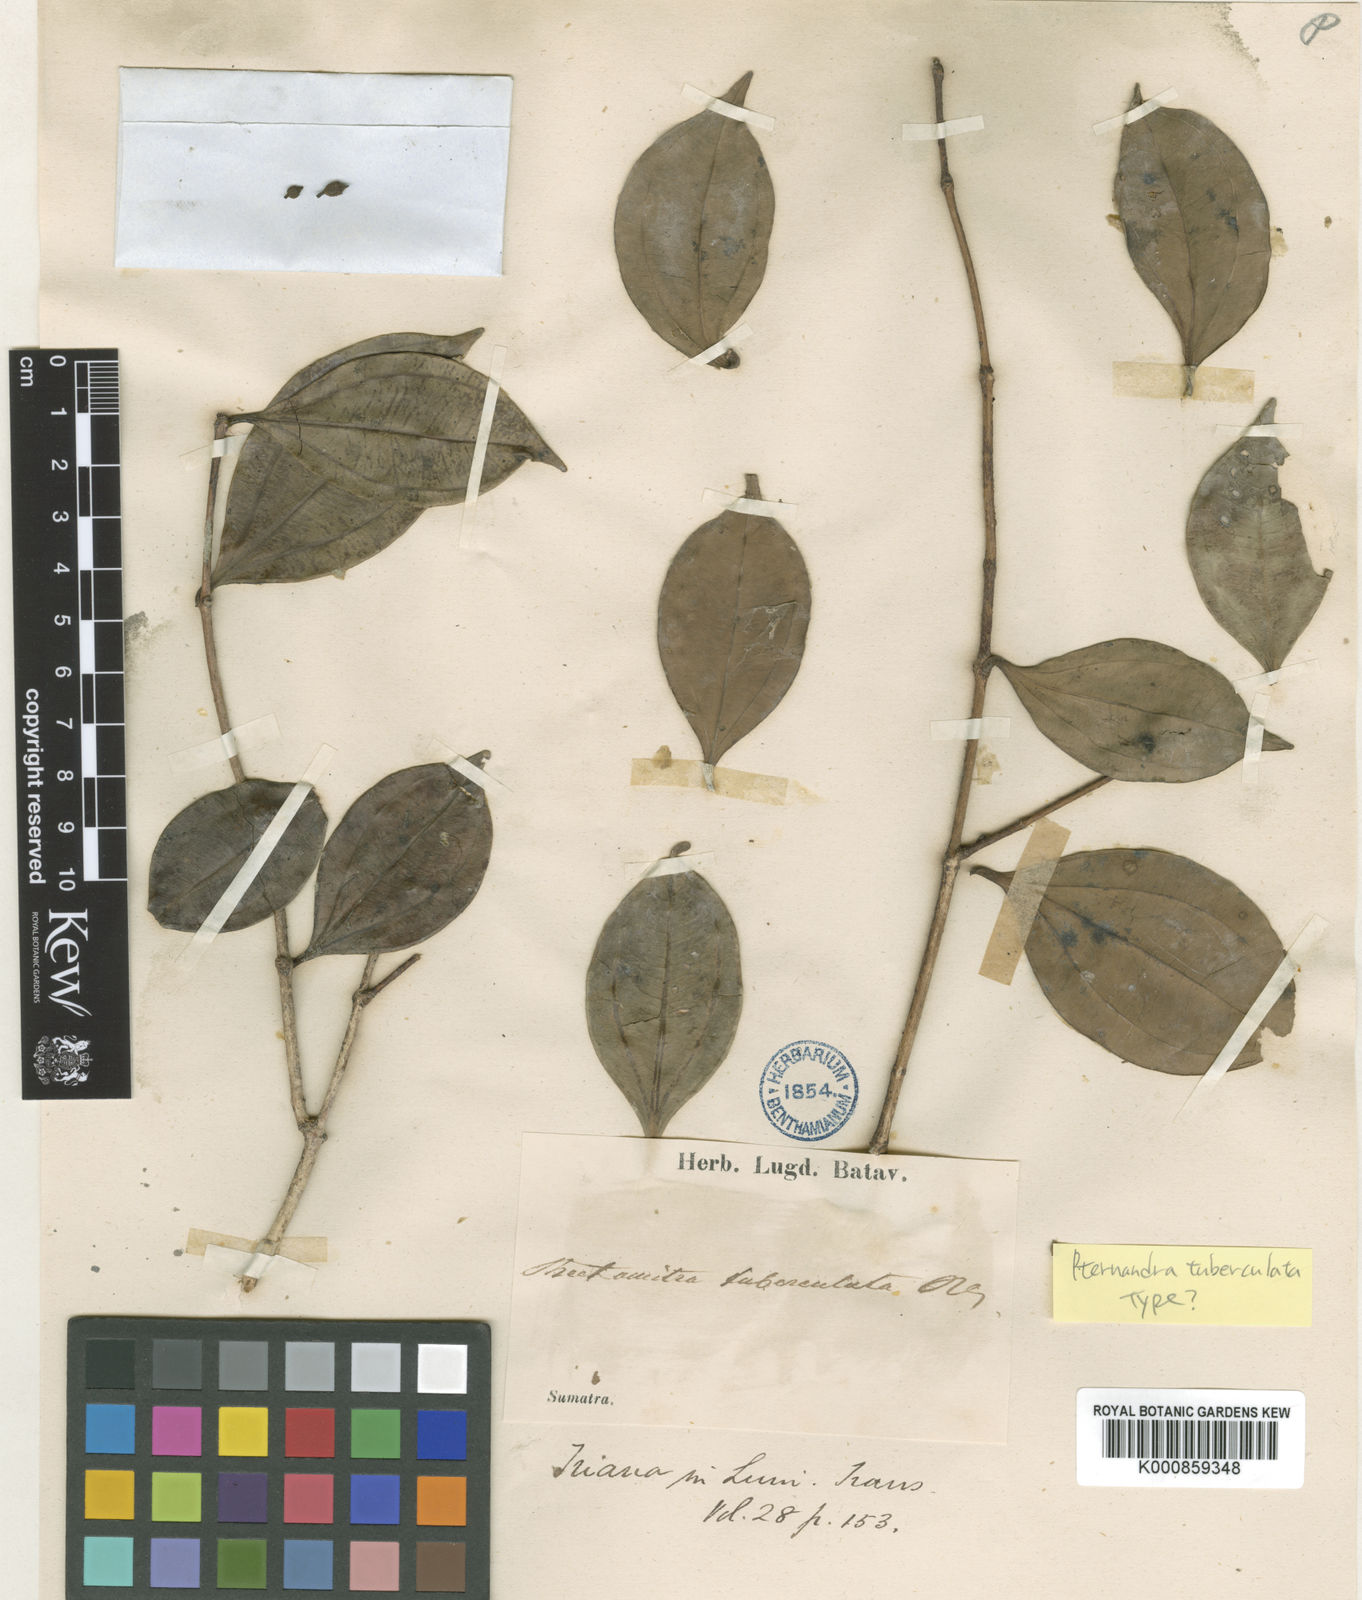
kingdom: Plantae
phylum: Tracheophyta
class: Magnoliopsida
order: Myrtales
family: Melastomataceae
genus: Pternandra
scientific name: Pternandra tuberculata
